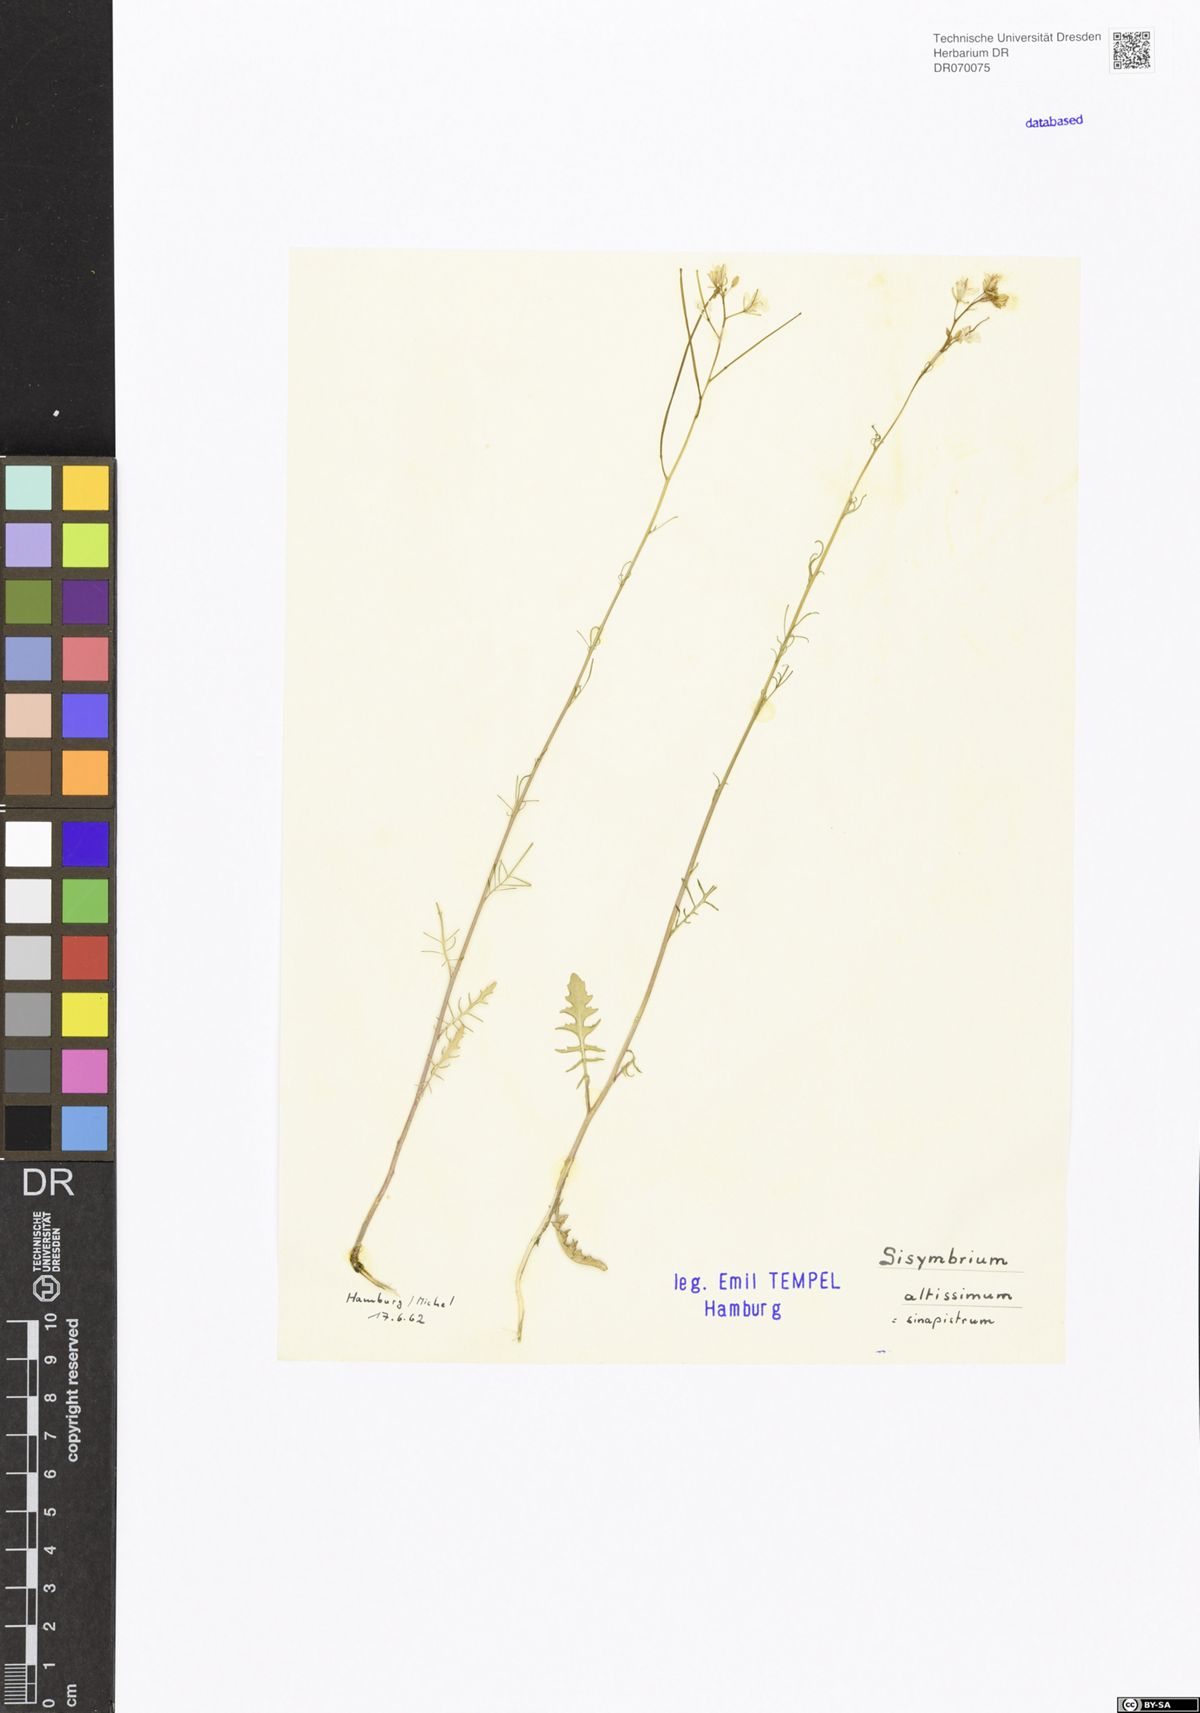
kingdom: Plantae
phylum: Tracheophyta
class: Magnoliopsida
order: Brassicales
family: Brassicaceae
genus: Sisymbrium
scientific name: Sisymbrium altissimum
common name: Tall rocket
